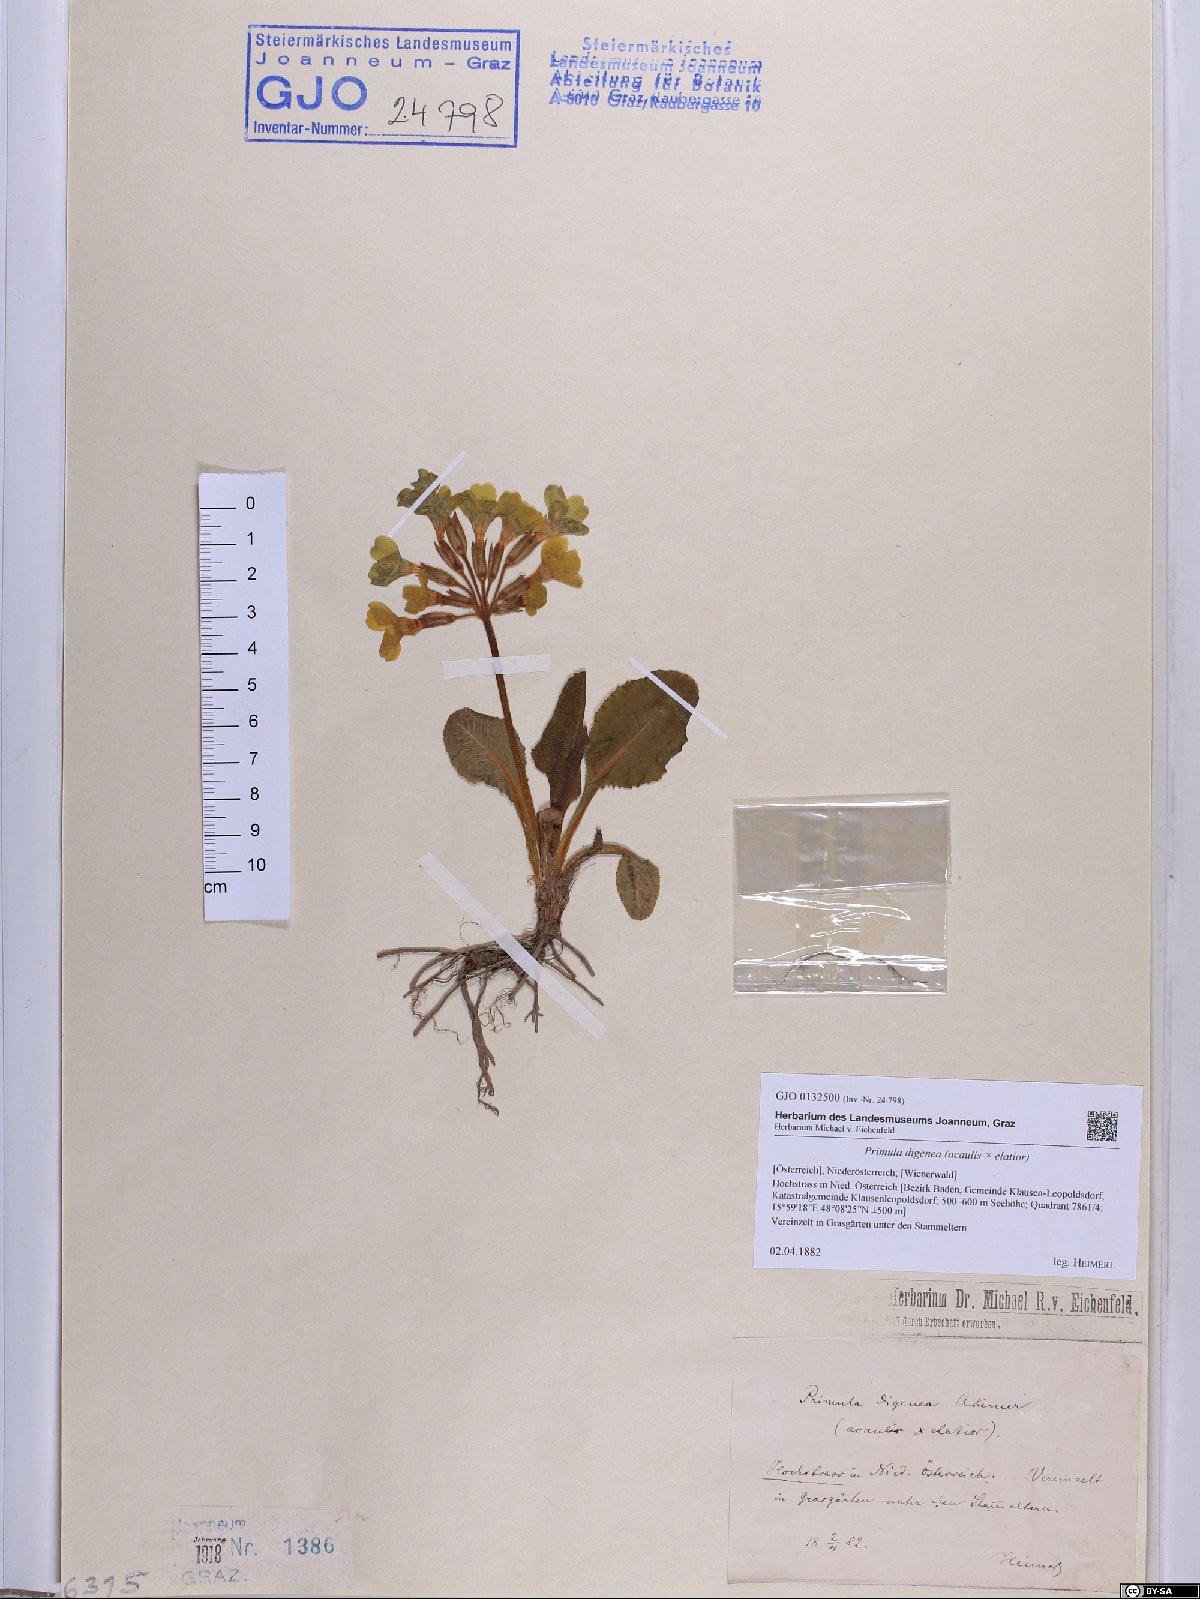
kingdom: Plantae
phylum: Tracheophyta
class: Magnoliopsida
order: Ericales
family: Primulaceae
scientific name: Primulaceae
